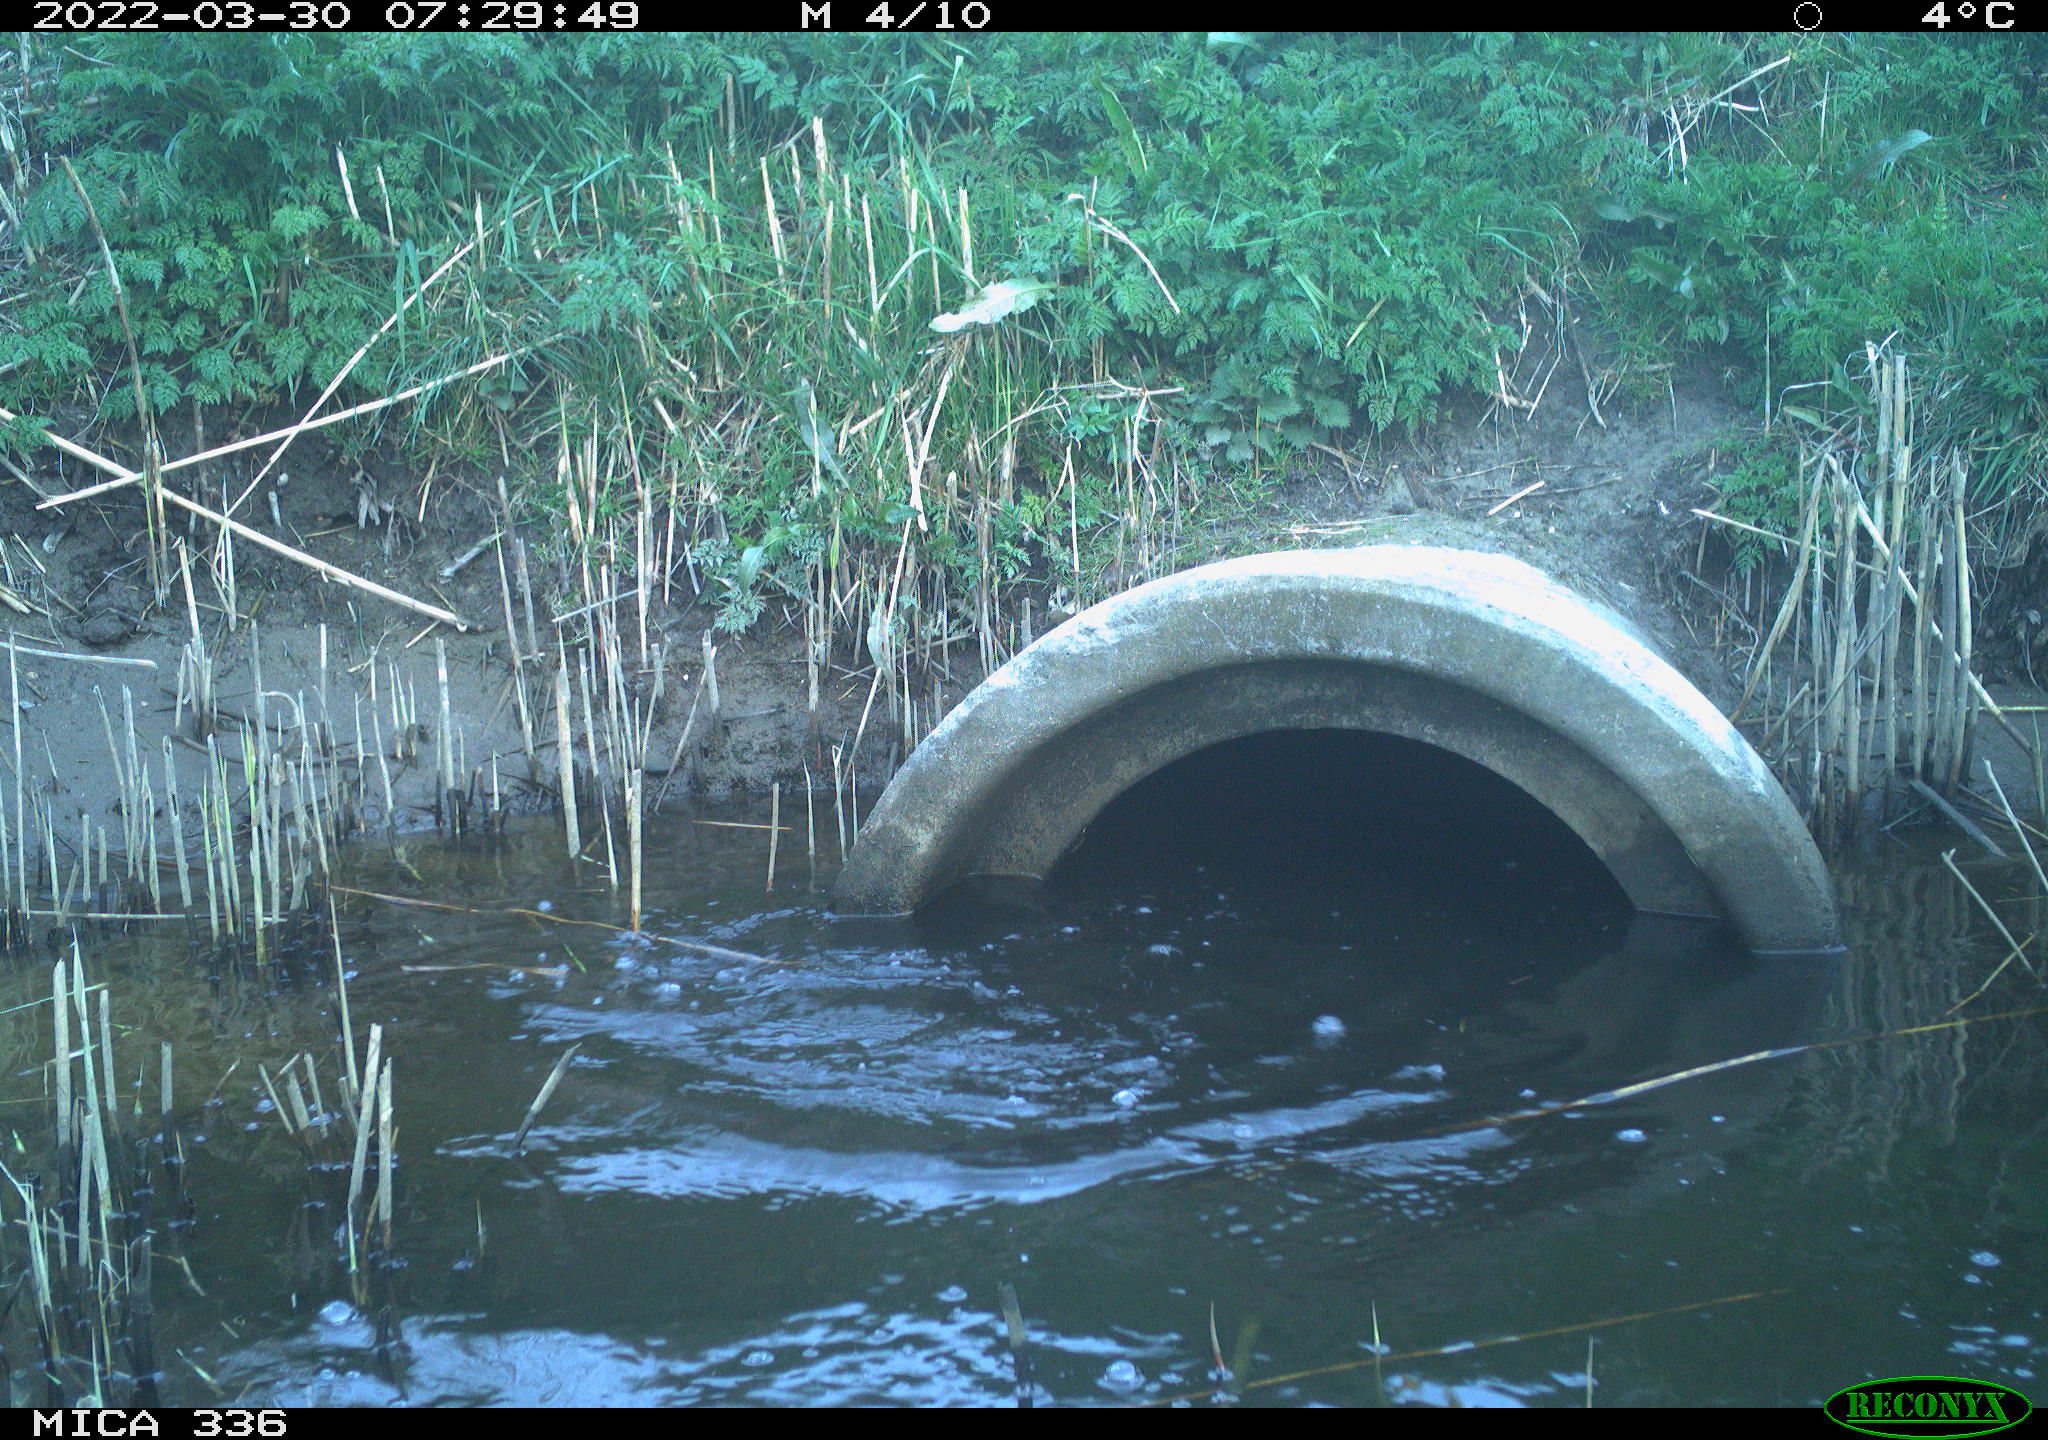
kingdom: Animalia
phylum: Chordata
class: Aves
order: Suliformes
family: Phalacrocoracidae
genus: Phalacrocorax
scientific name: Phalacrocorax carbo
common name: Great cormorant
